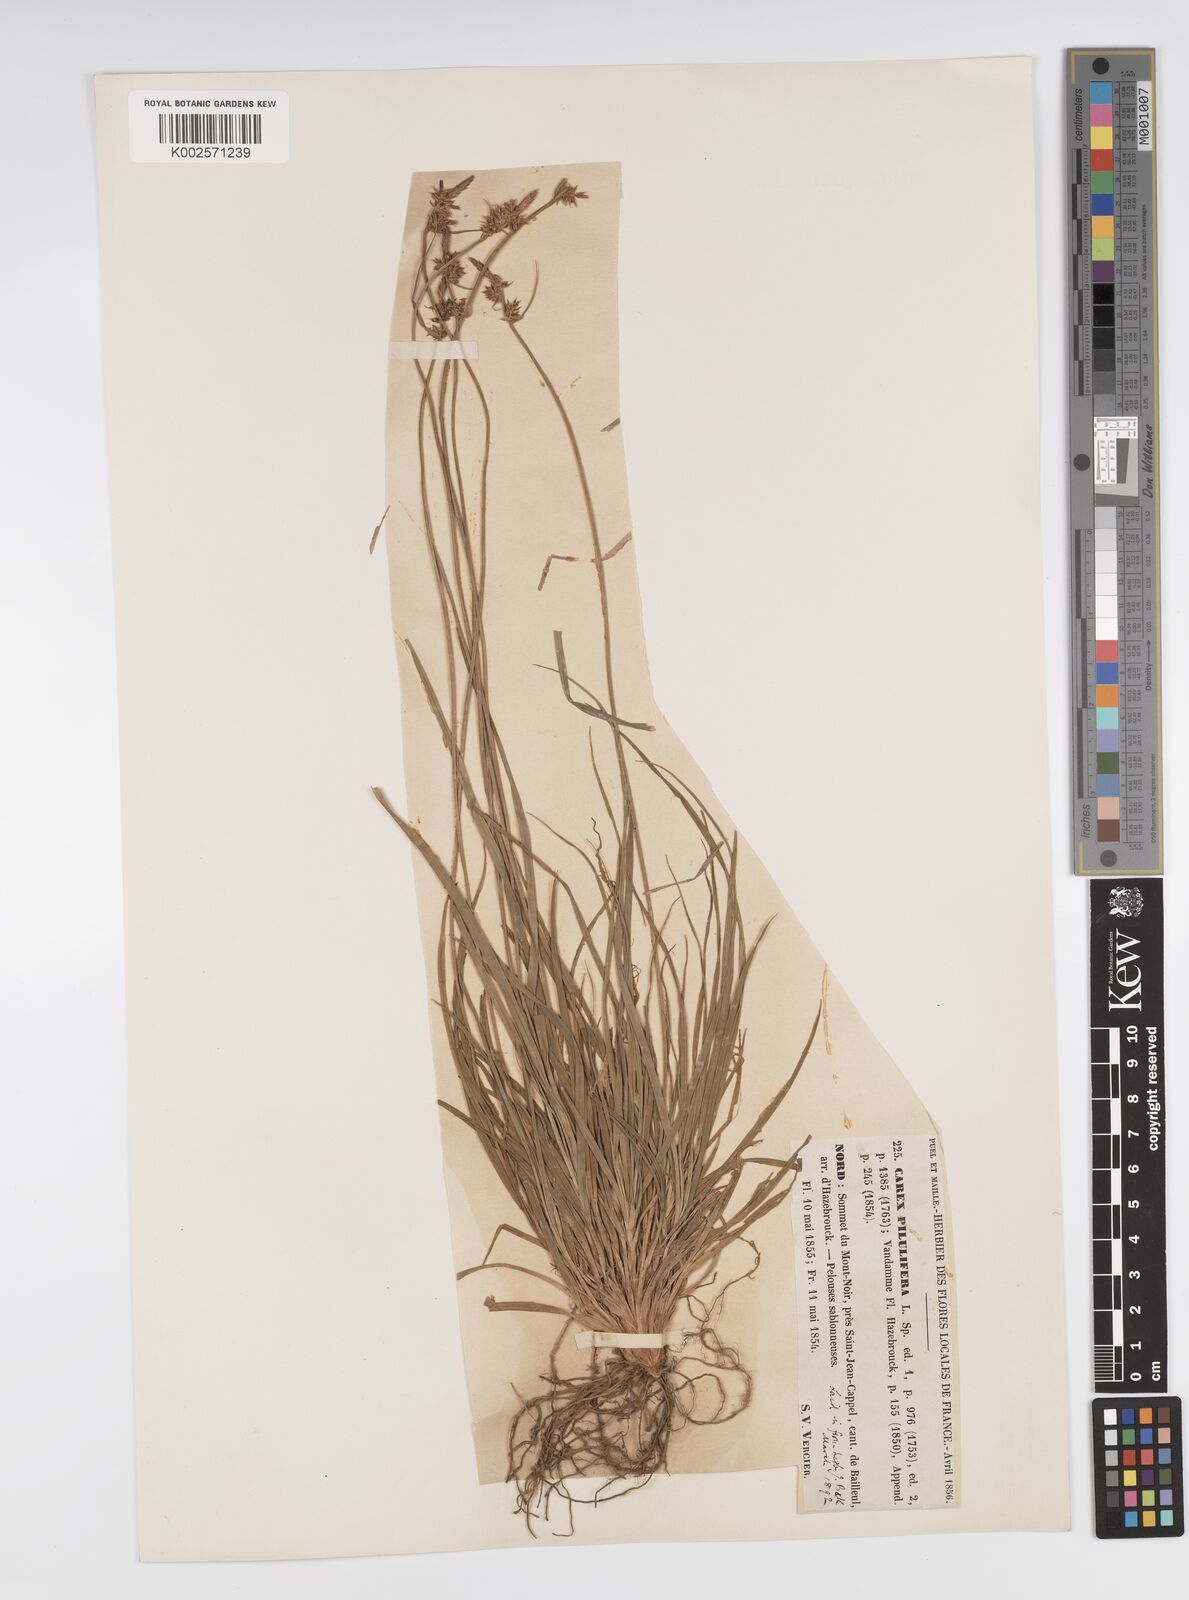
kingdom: Plantae
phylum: Tracheophyta
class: Liliopsida
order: Poales
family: Cyperaceae
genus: Carex
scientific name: Carex pilulifera
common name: Pill sedge
